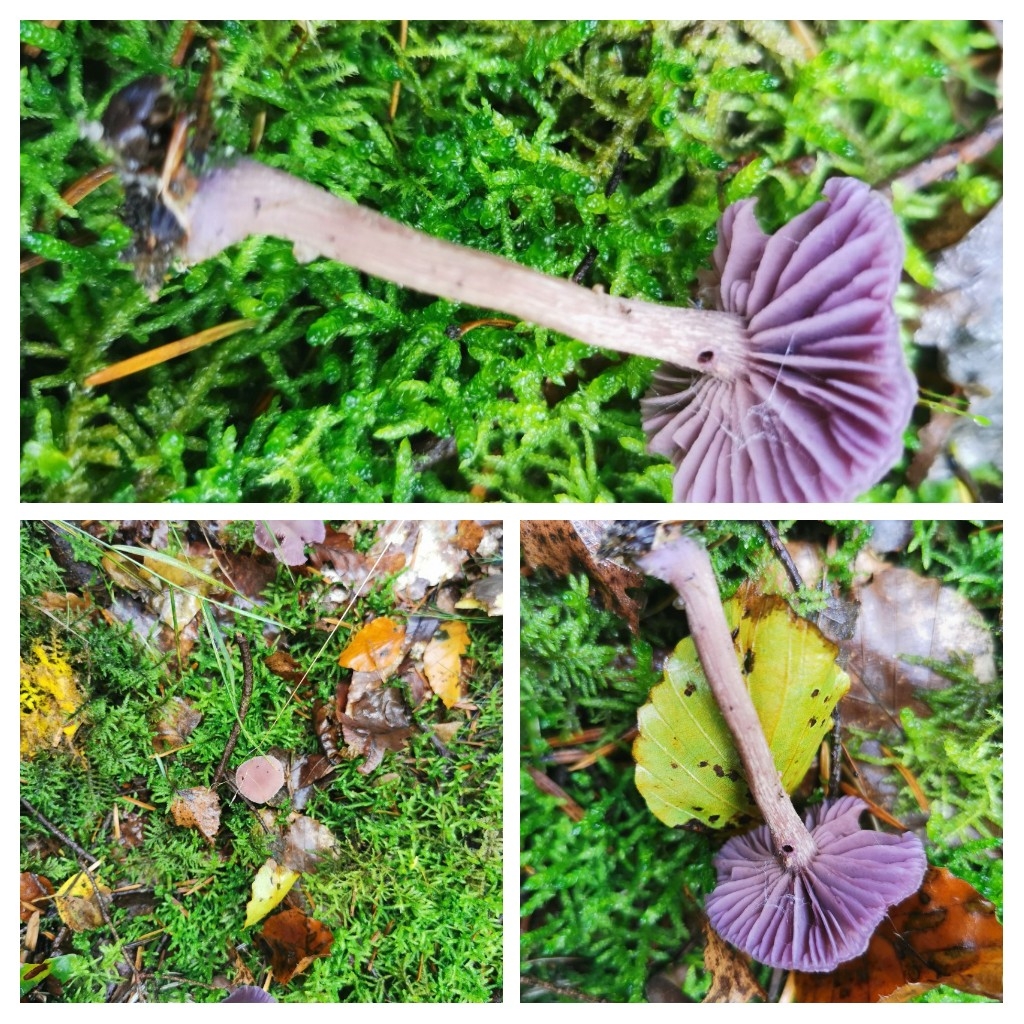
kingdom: Fungi
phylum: Basidiomycota
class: Agaricomycetes
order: Agaricales
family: Hydnangiaceae
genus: Laccaria
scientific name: Laccaria amethystina
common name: violet ametysthat
